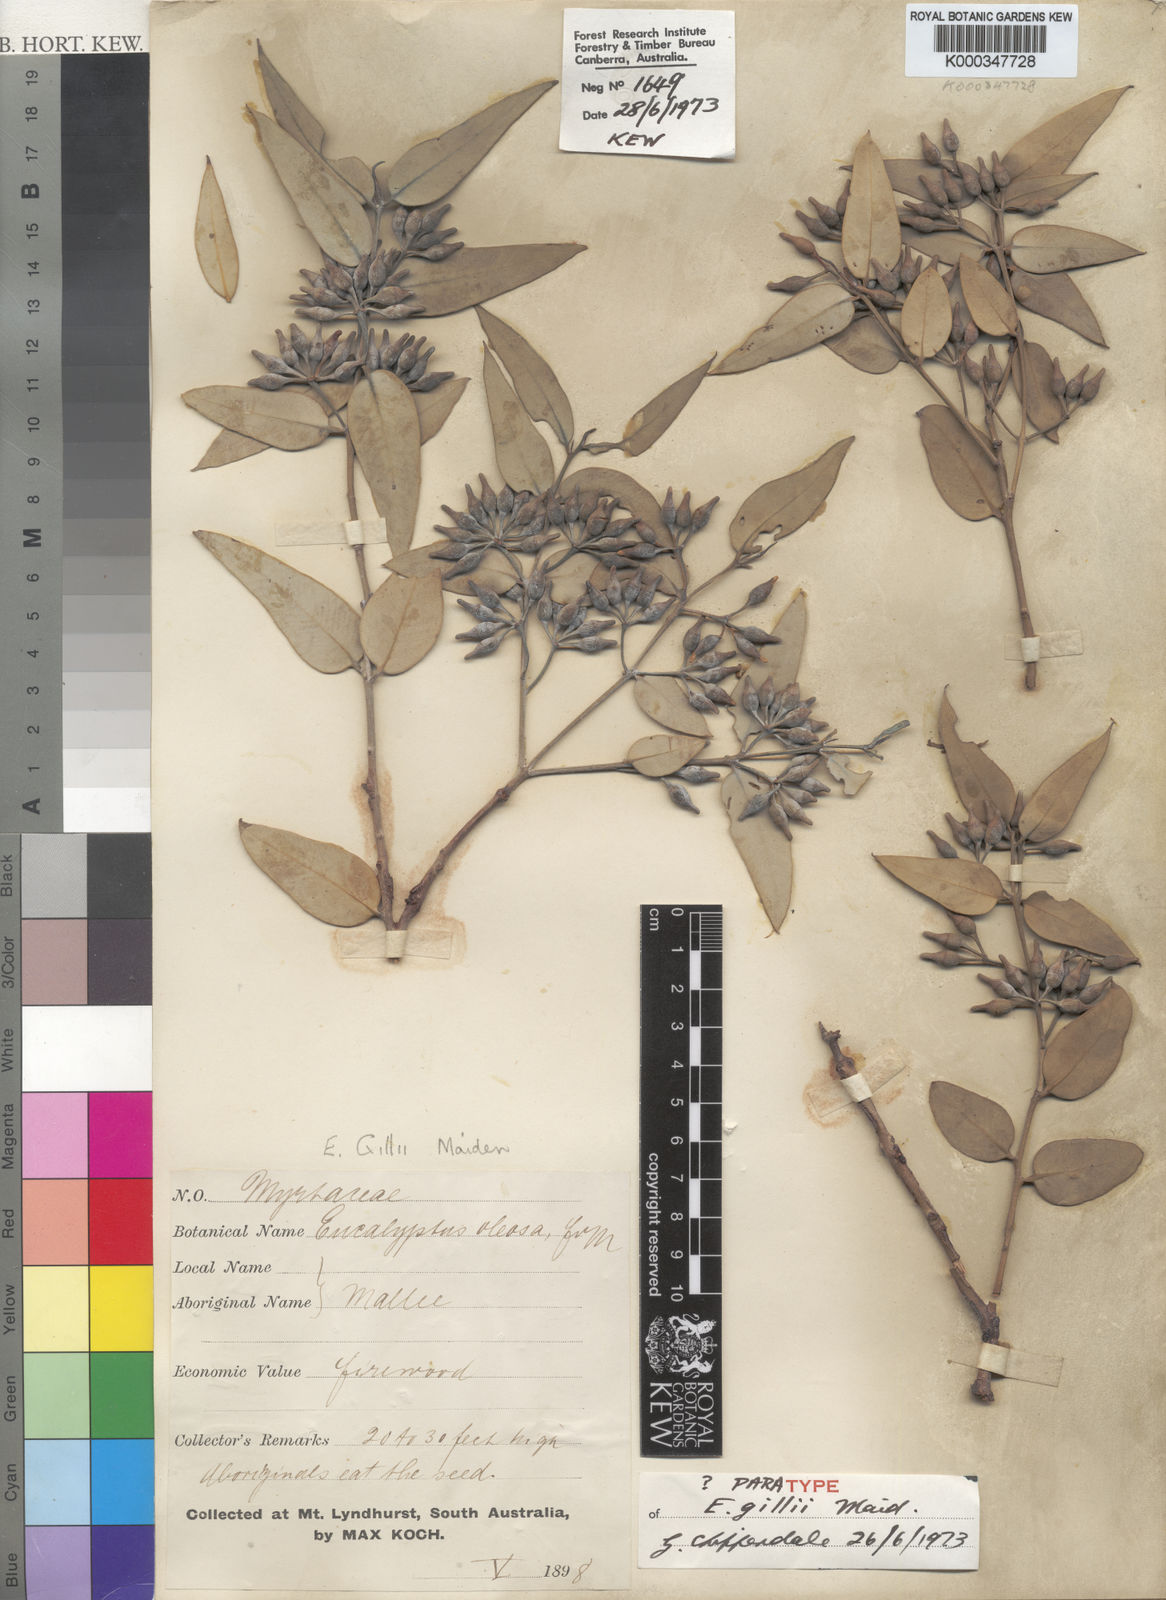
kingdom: Plantae
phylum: Tracheophyta
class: Magnoliopsida
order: Myrtales
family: Myrtaceae
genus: Eucalyptus
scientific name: Eucalyptus gillii
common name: Broken hill mallee
